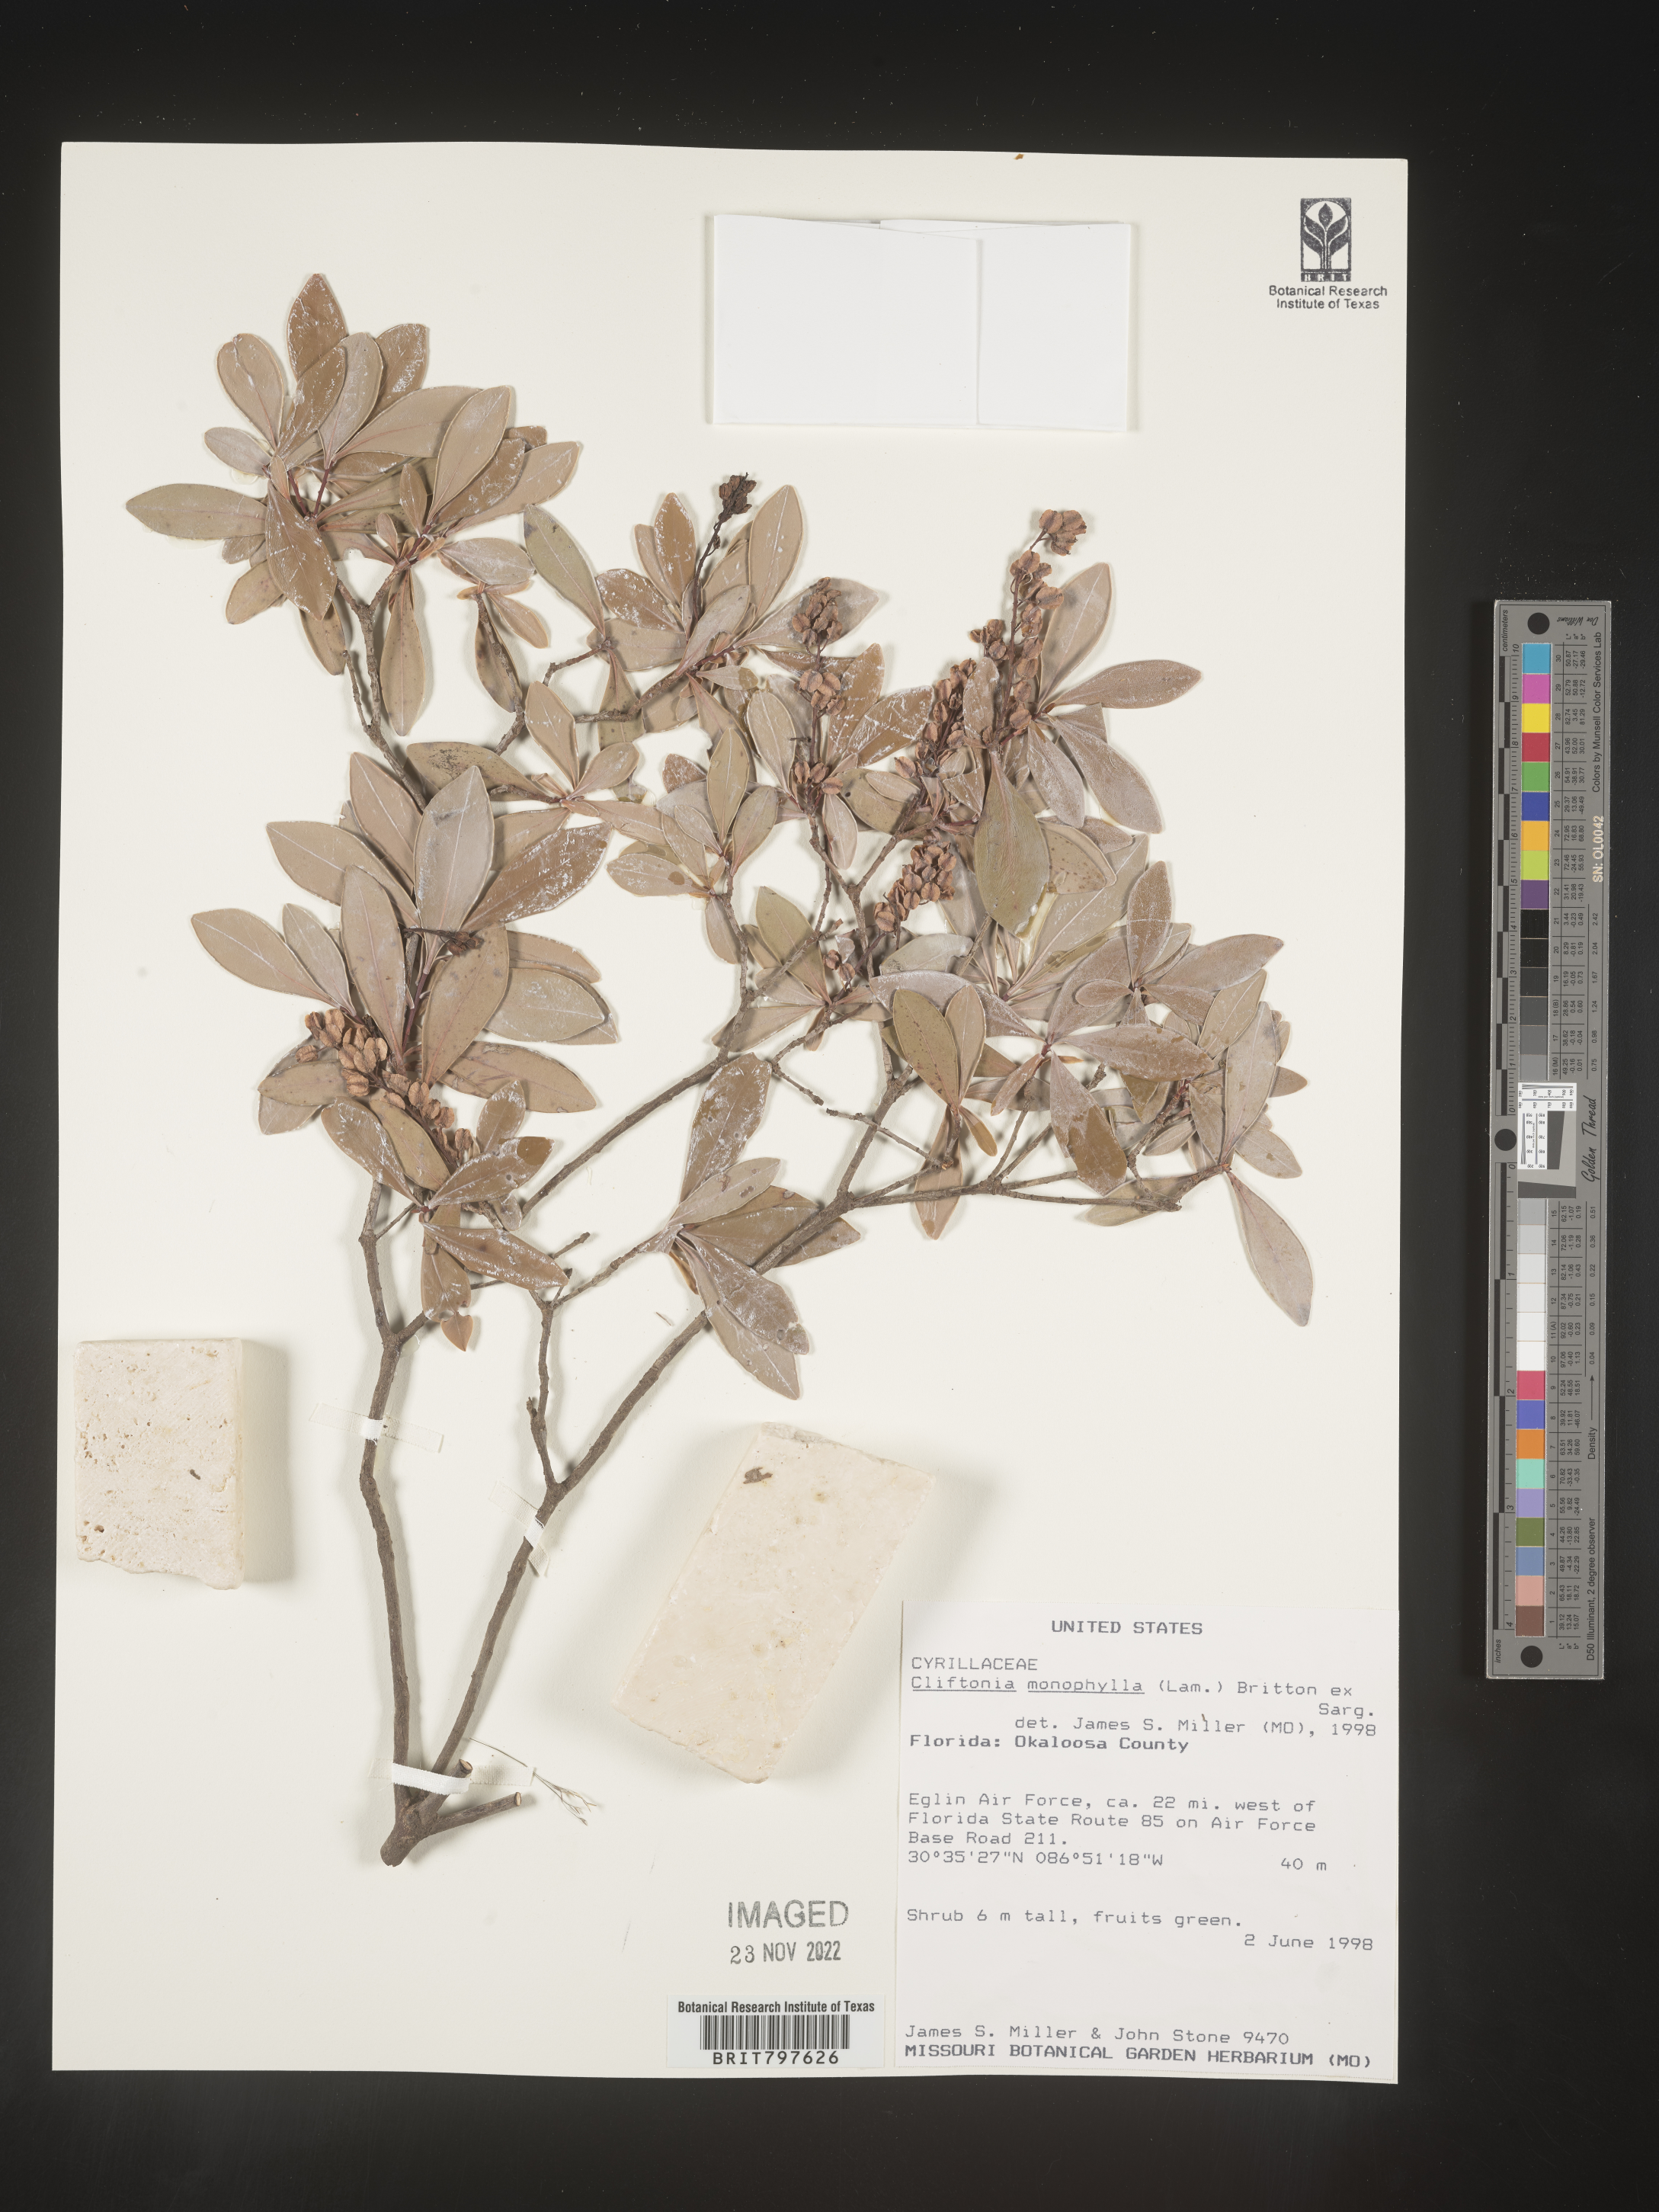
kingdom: Plantae
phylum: Tracheophyta
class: Magnoliopsida
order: Ericales
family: Cyrillaceae
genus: Cliftonia
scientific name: Cliftonia monophylla
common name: Titi
